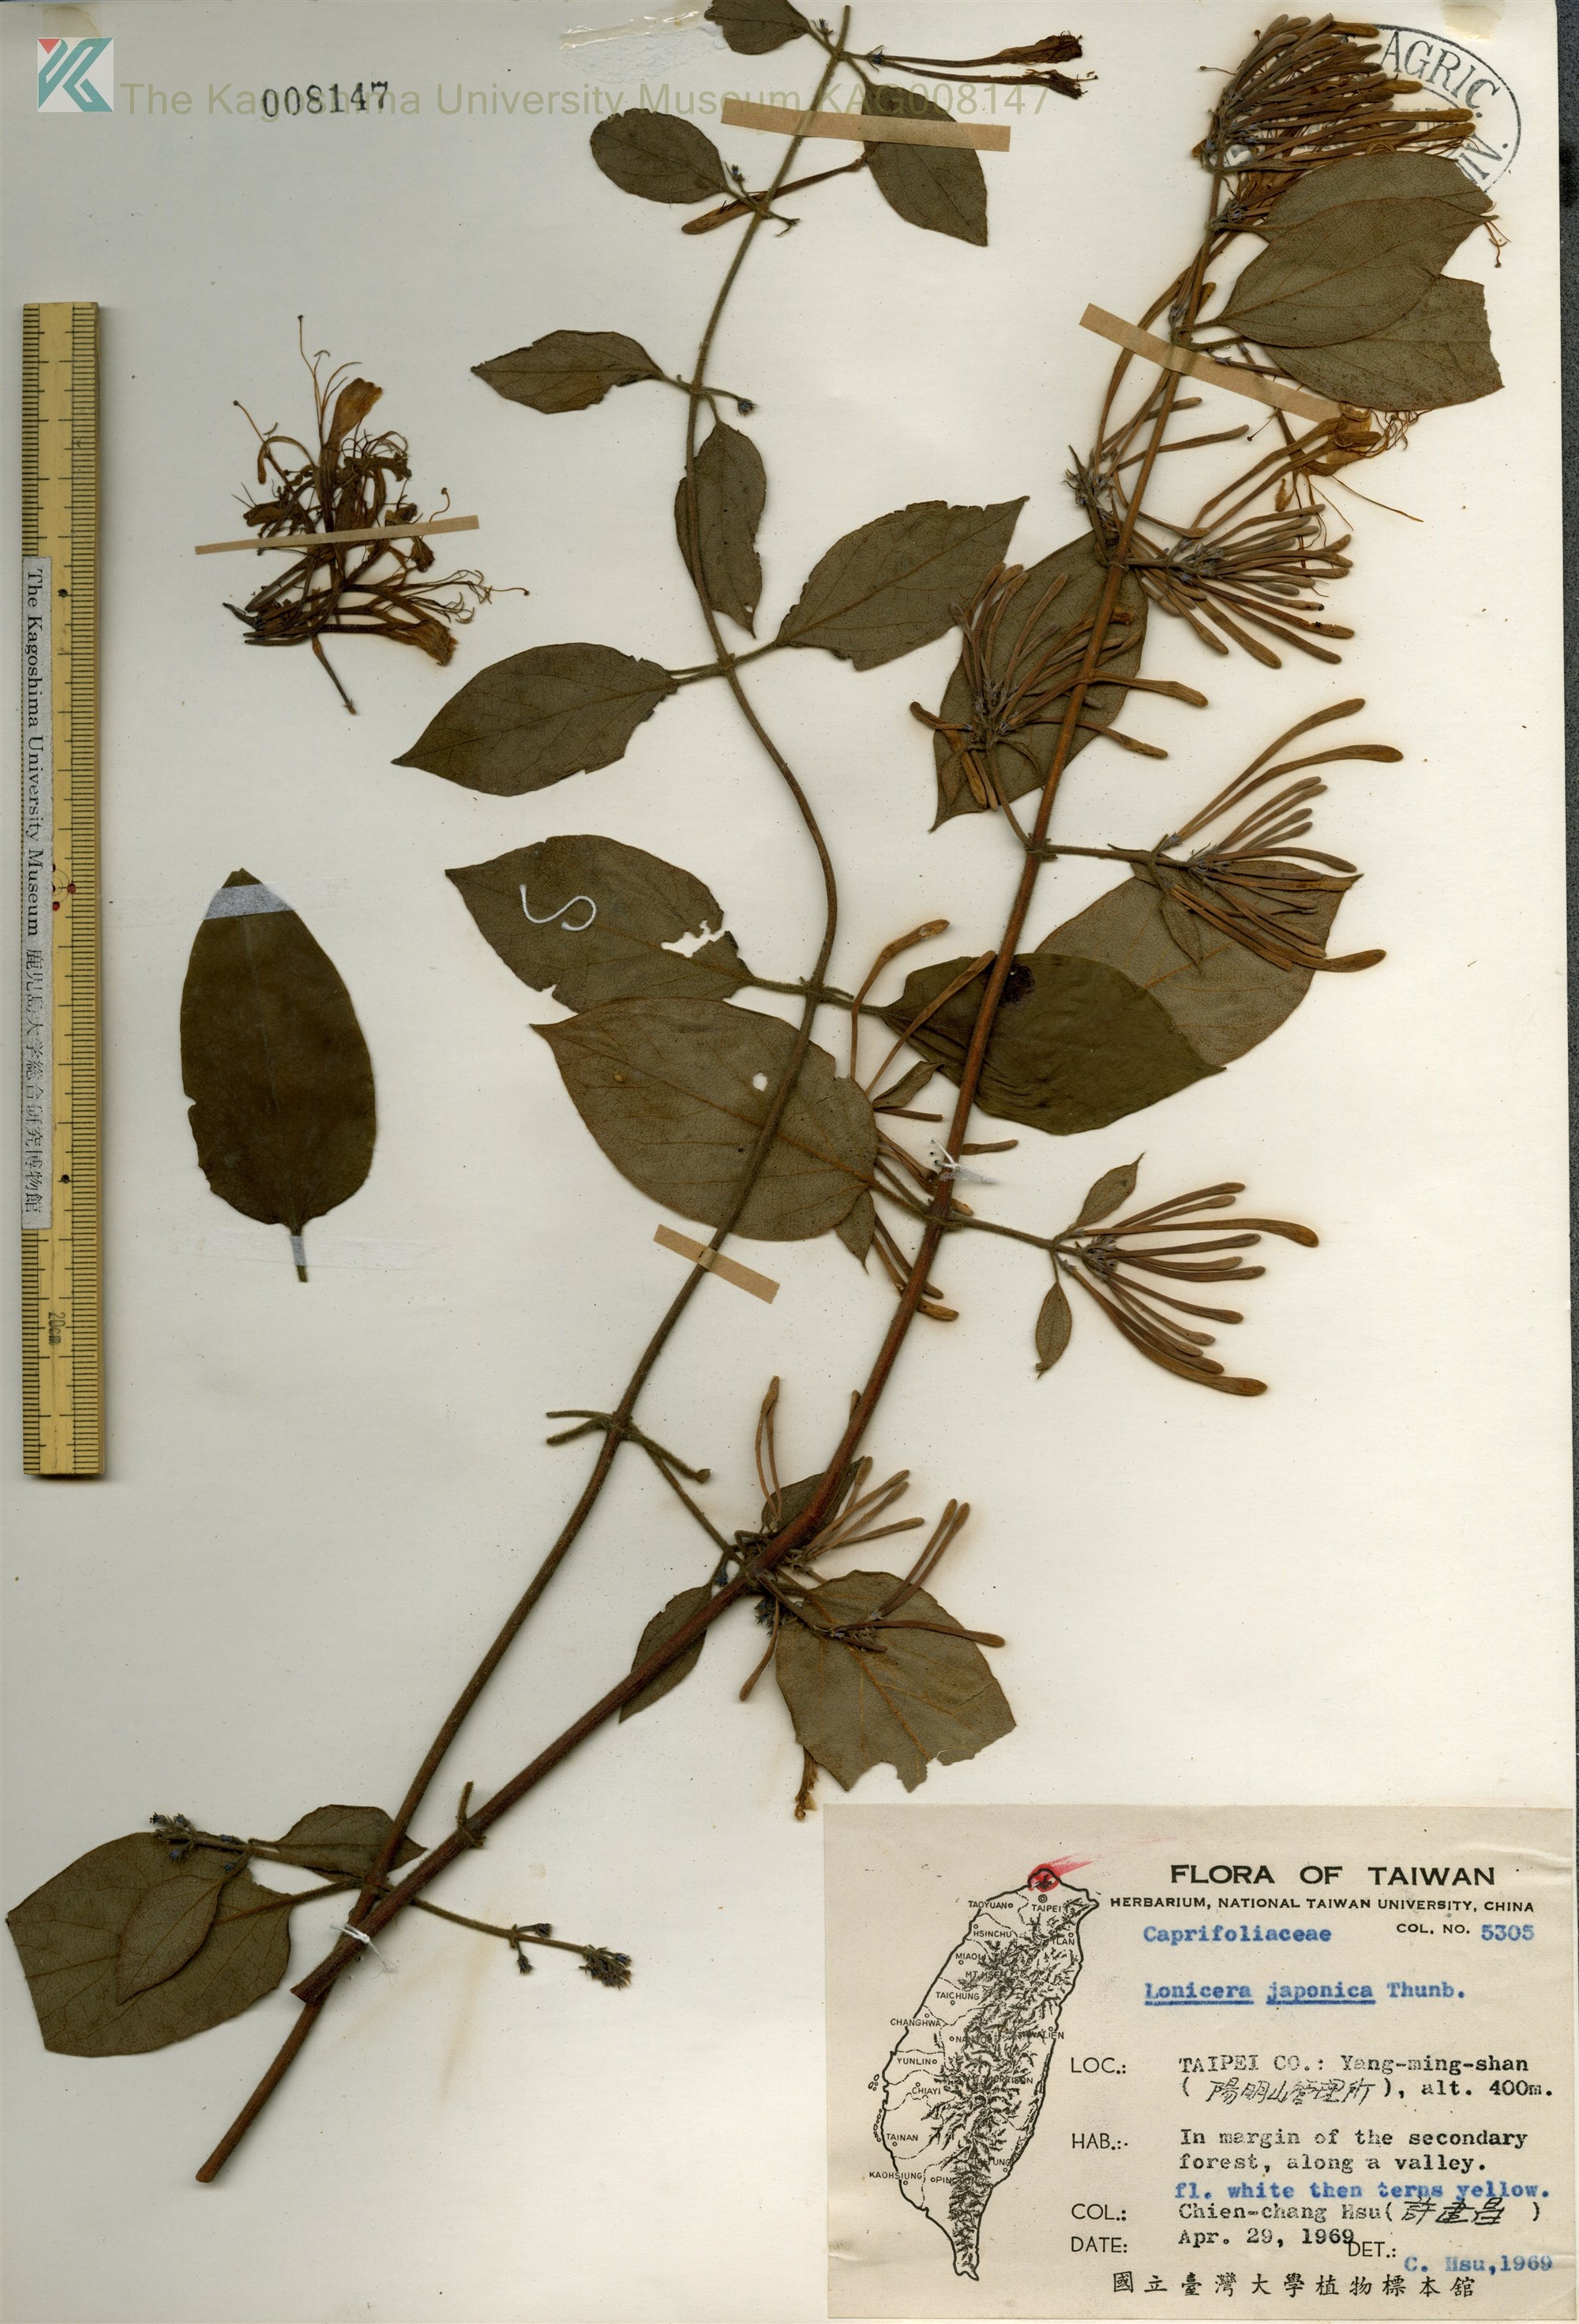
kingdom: Plantae
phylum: Tracheophyta
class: Magnoliopsida
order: Dipsacales
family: Caprifoliaceae
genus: Lonicera
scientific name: Lonicera japonica
